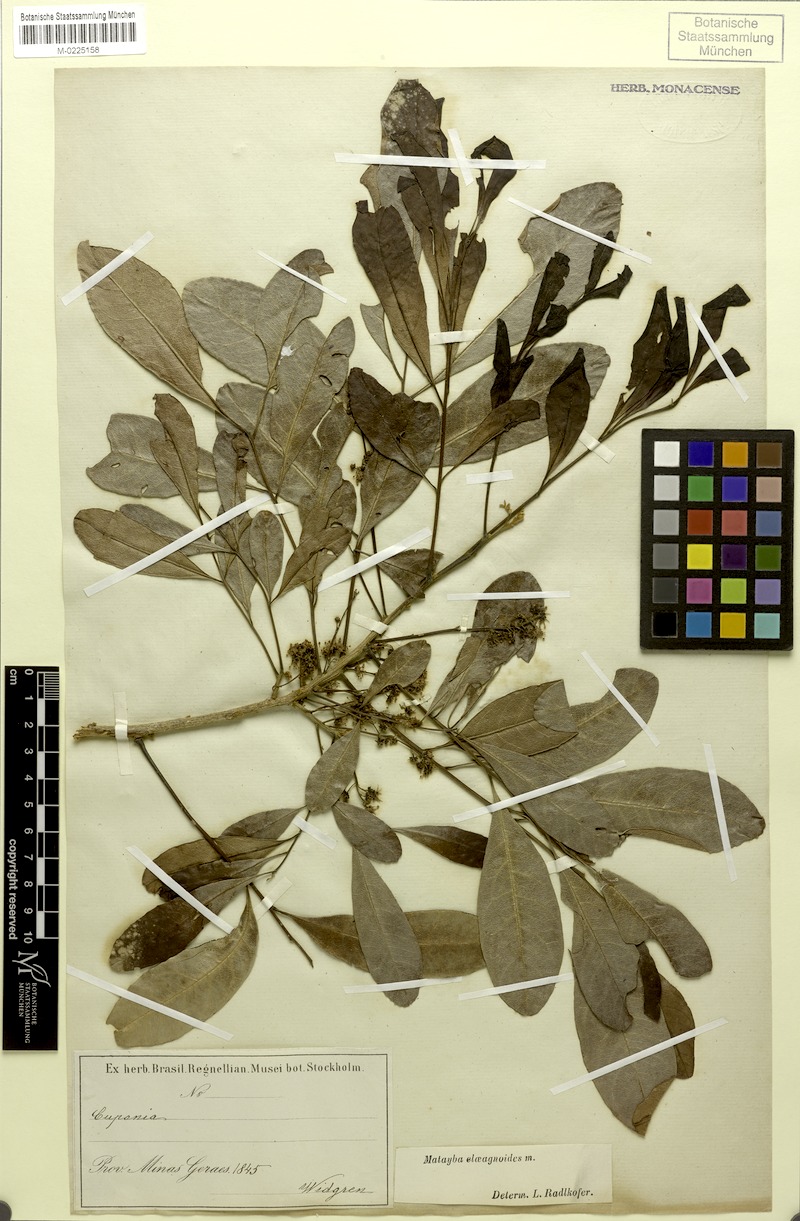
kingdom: Plantae
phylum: Tracheophyta
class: Magnoliopsida
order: Sapindales
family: Sapindaceae
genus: Matayba
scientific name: Matayba elaeagnoides
